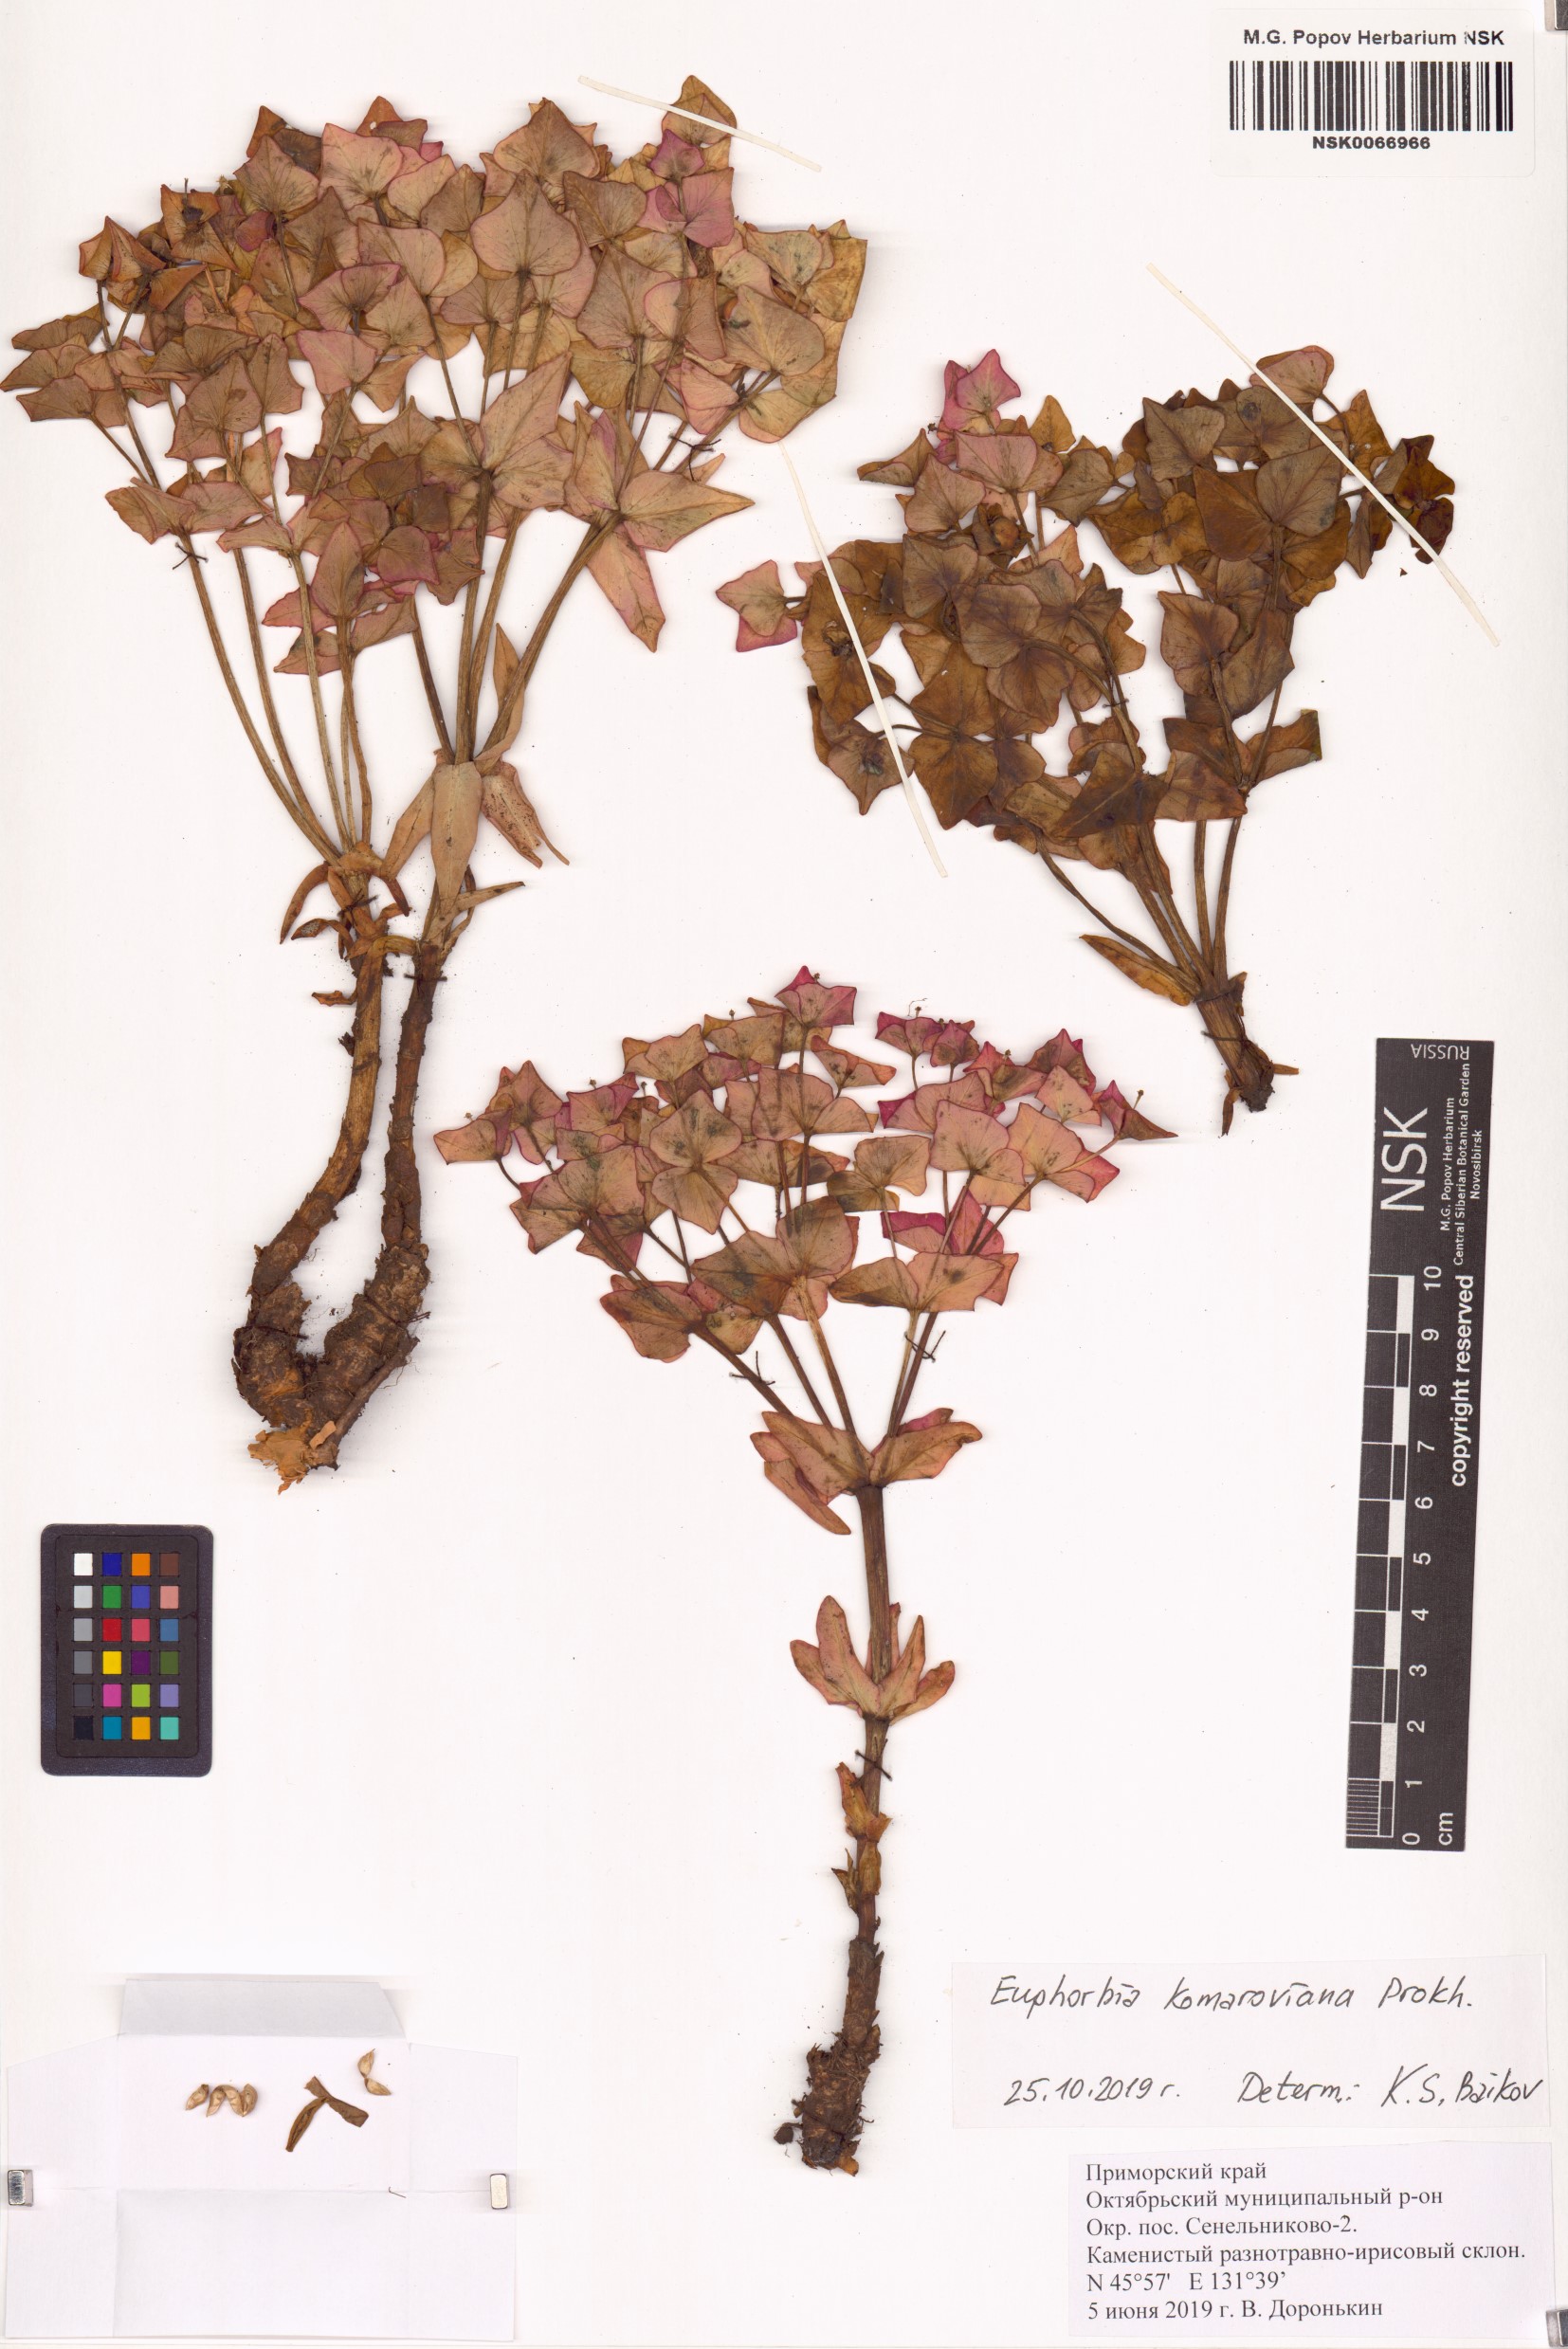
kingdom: Plantae
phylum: Tracheophyta
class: Magnoliopsida
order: Malpighiales
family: Euphorbiaceae
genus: Euphorbia
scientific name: Euphorbia hylonoma
